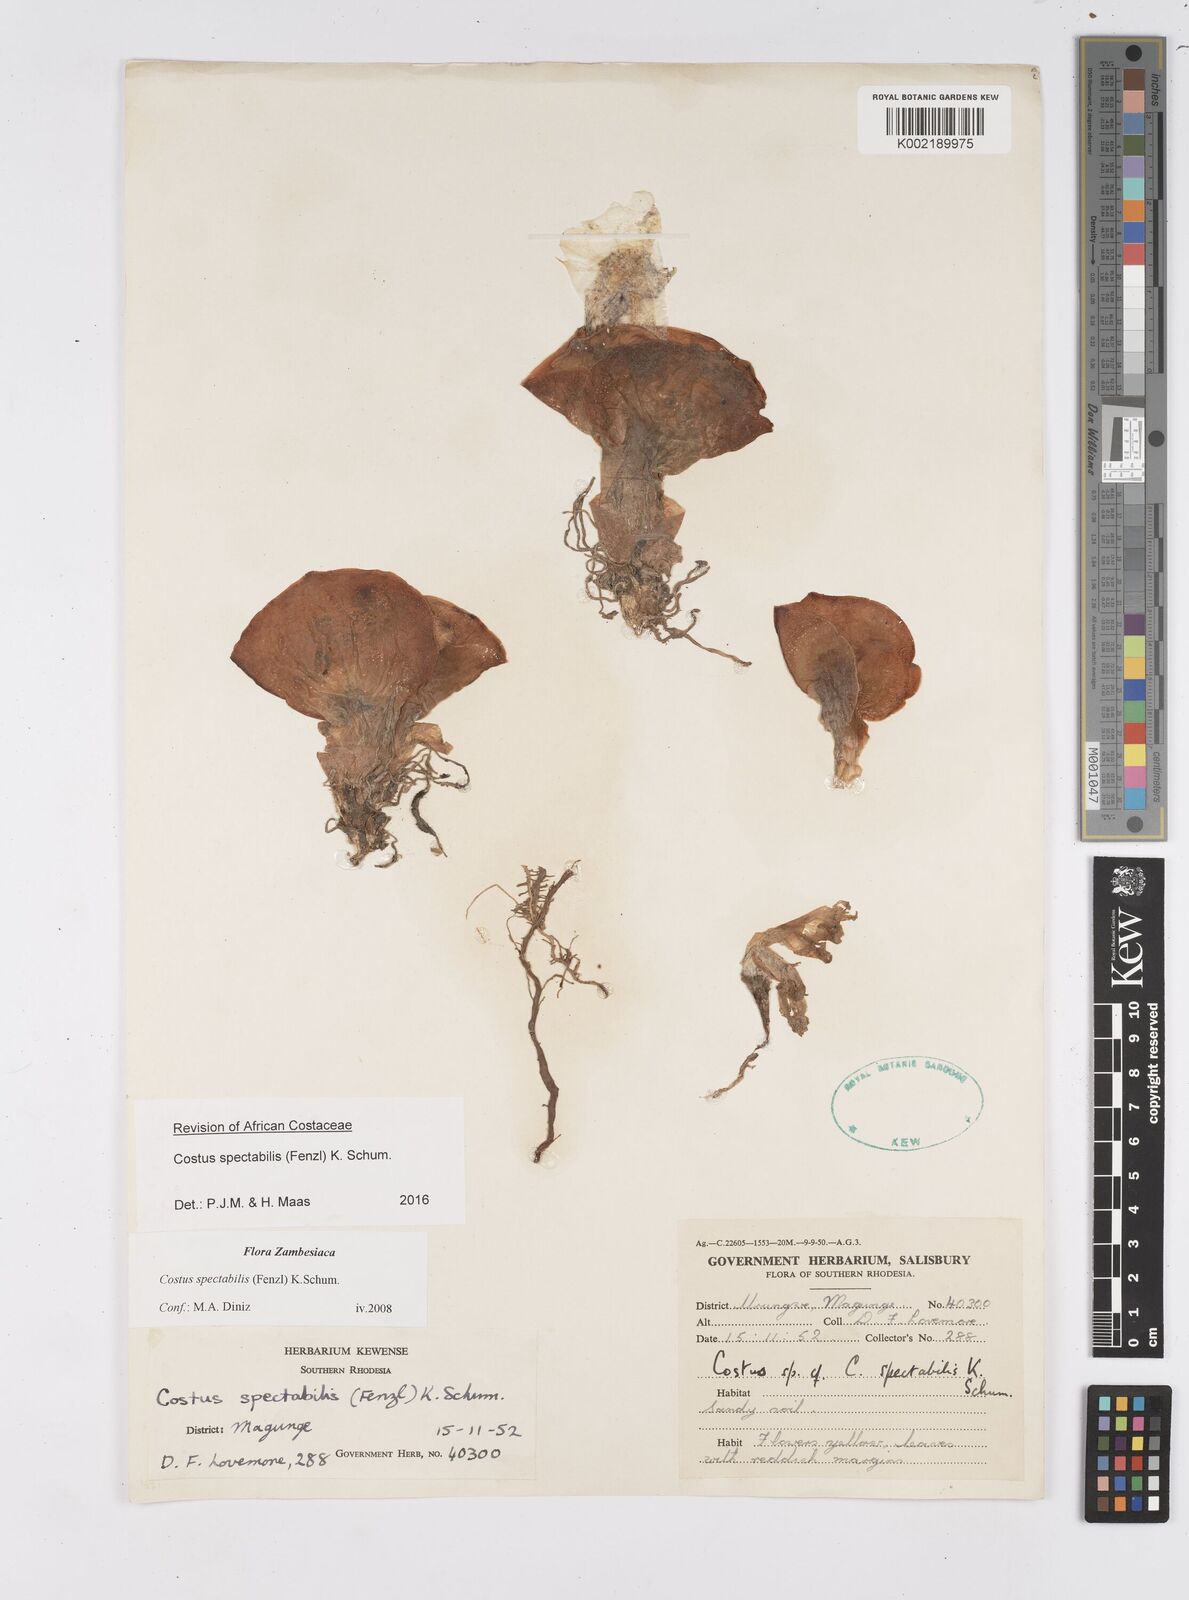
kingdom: Plantae
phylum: Tracheophyta
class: Liliopsida
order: Zingiberales
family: Costaceae
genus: Costus
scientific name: Costus spectabilis
